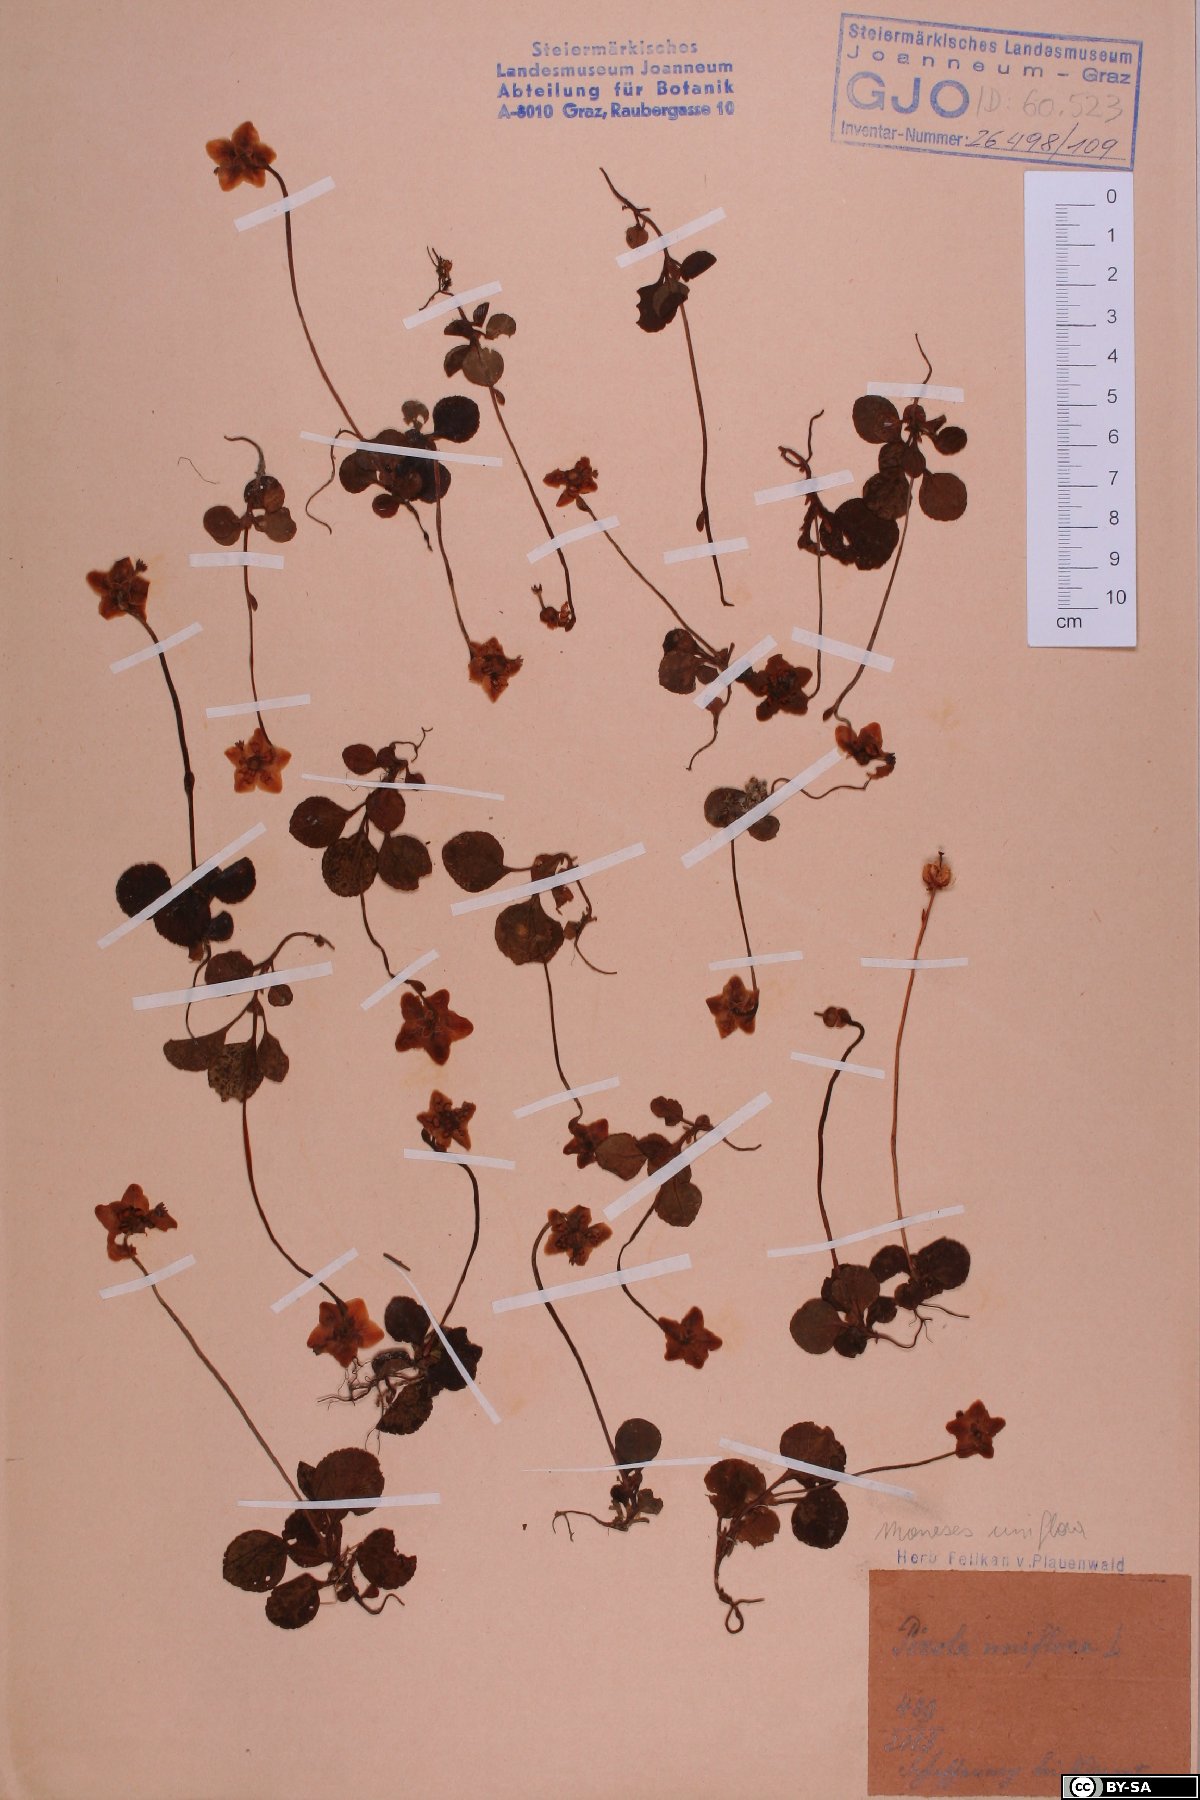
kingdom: Plantae
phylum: Tracheophyta
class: Magnoliopsida
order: Ericales
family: Ericaceae
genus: Moneses
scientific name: Moneses uniflora
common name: One-flowered wintergreen
